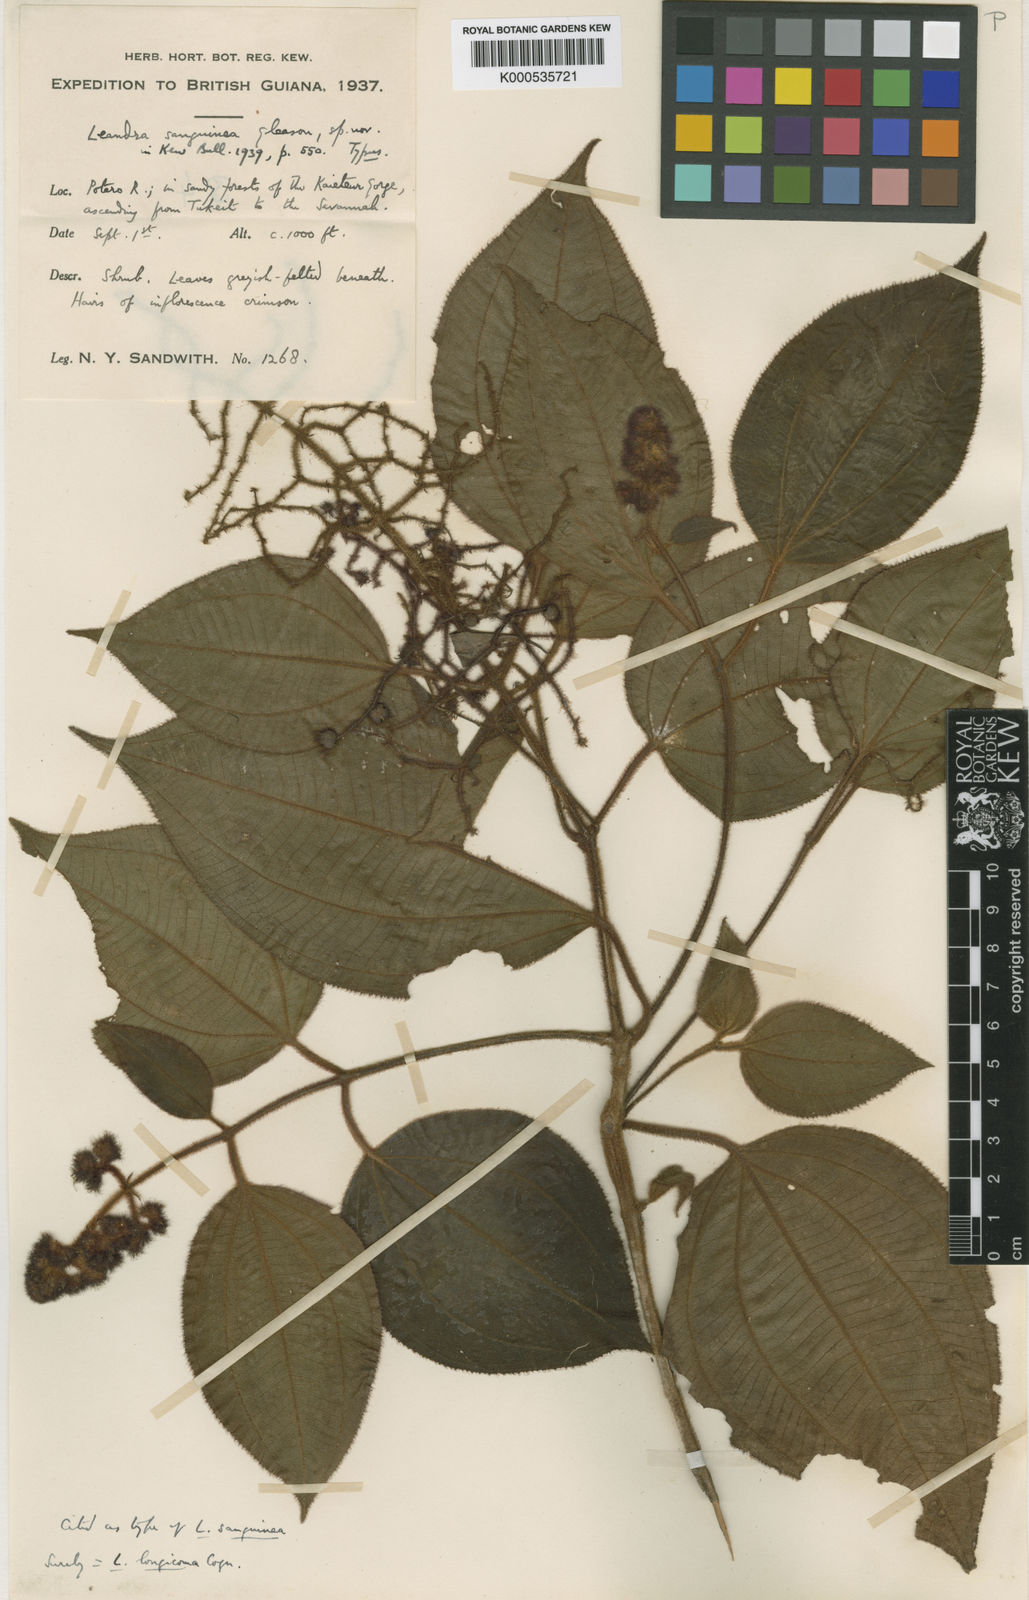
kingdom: Plantae
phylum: Tracheophyta
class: Magnoliopsida
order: Myrtales
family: Melastomataceae
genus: Miconia
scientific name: Miconia longicoma
